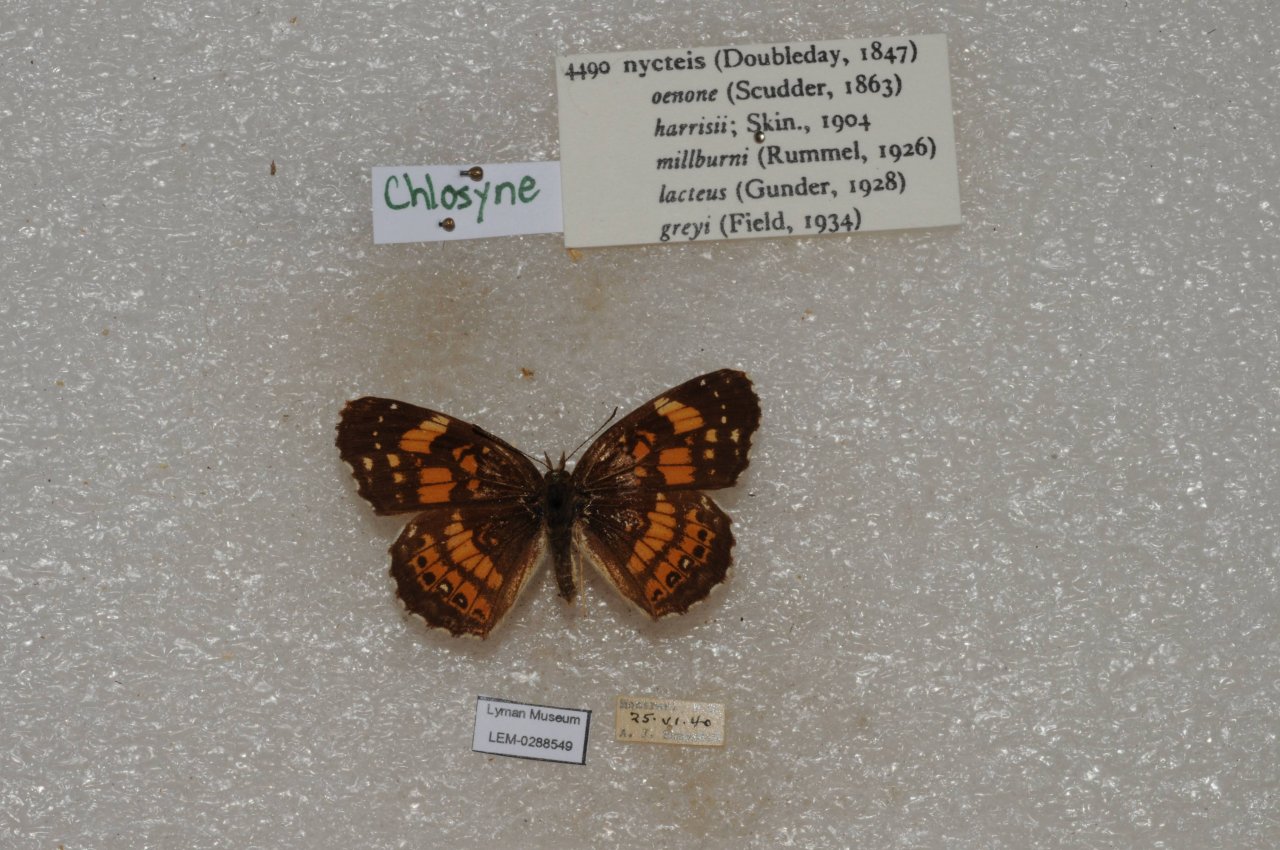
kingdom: Animalia
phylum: Arthropoda
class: Insecta
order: Lepidoptera
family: Nymphalidae
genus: Chlosyne
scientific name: Chlosyne nycteis
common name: Silvery Checkerspot
